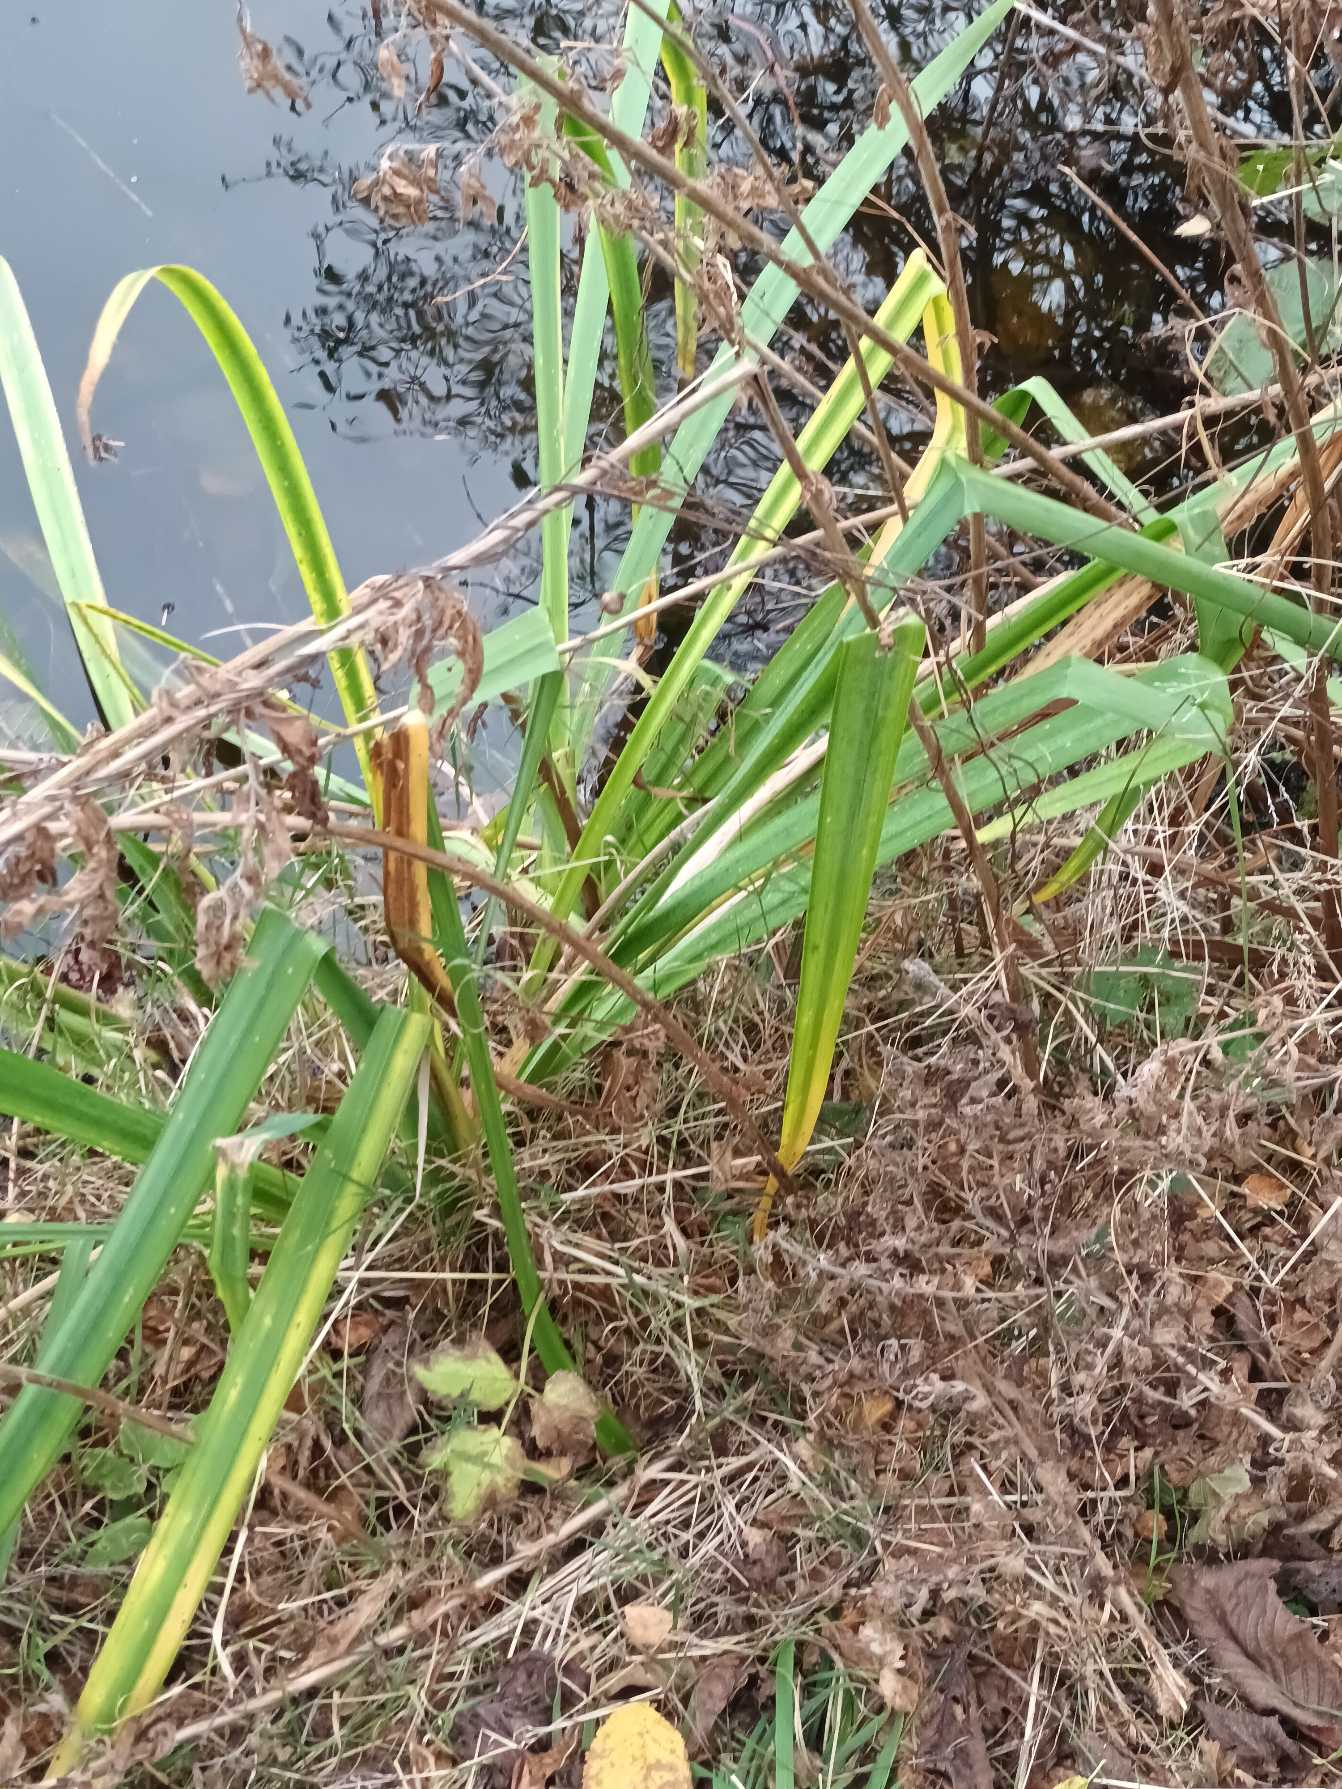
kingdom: Plantae
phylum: Tracheophyta
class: Liliopsida
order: Asparagales
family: Iridaceae
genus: Iris
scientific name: Iris pseudacorus
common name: Gul iris
